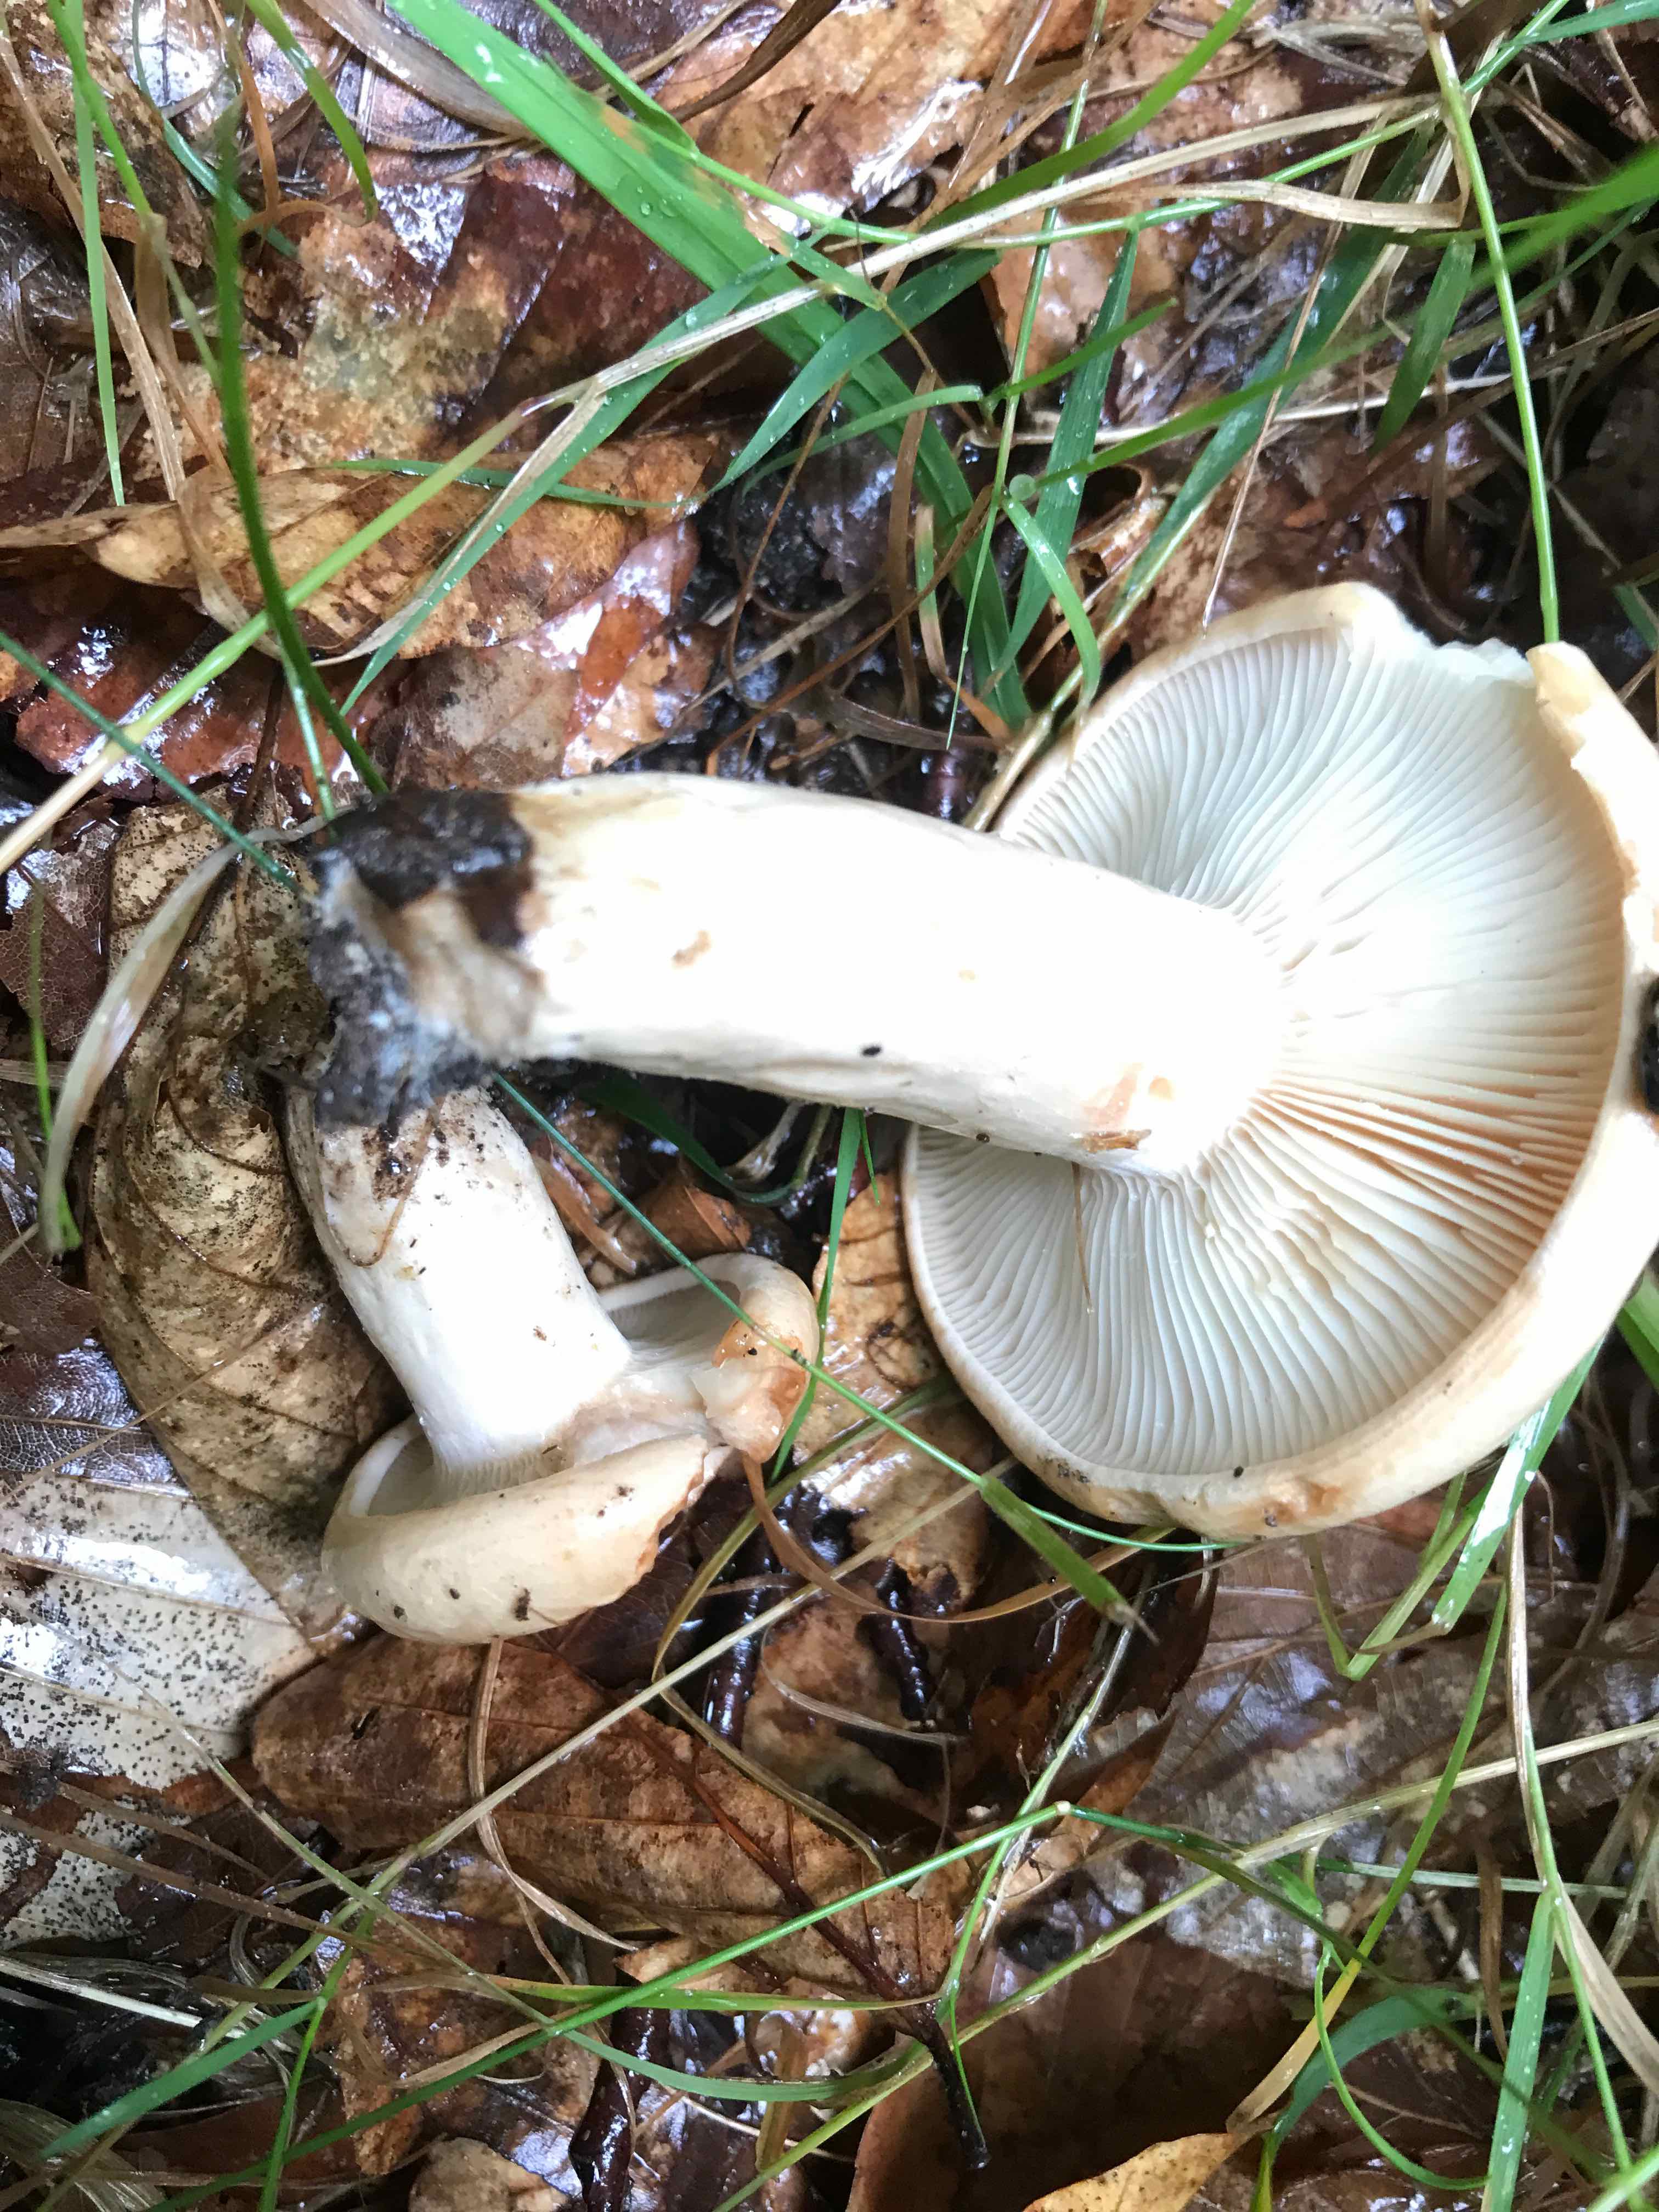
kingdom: Fungi
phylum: Basidiomycota
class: Agaricomycetes
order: Russulales
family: Russulaceae
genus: Lactarius
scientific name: Lactarius pallidus
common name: bleg mælkehat
